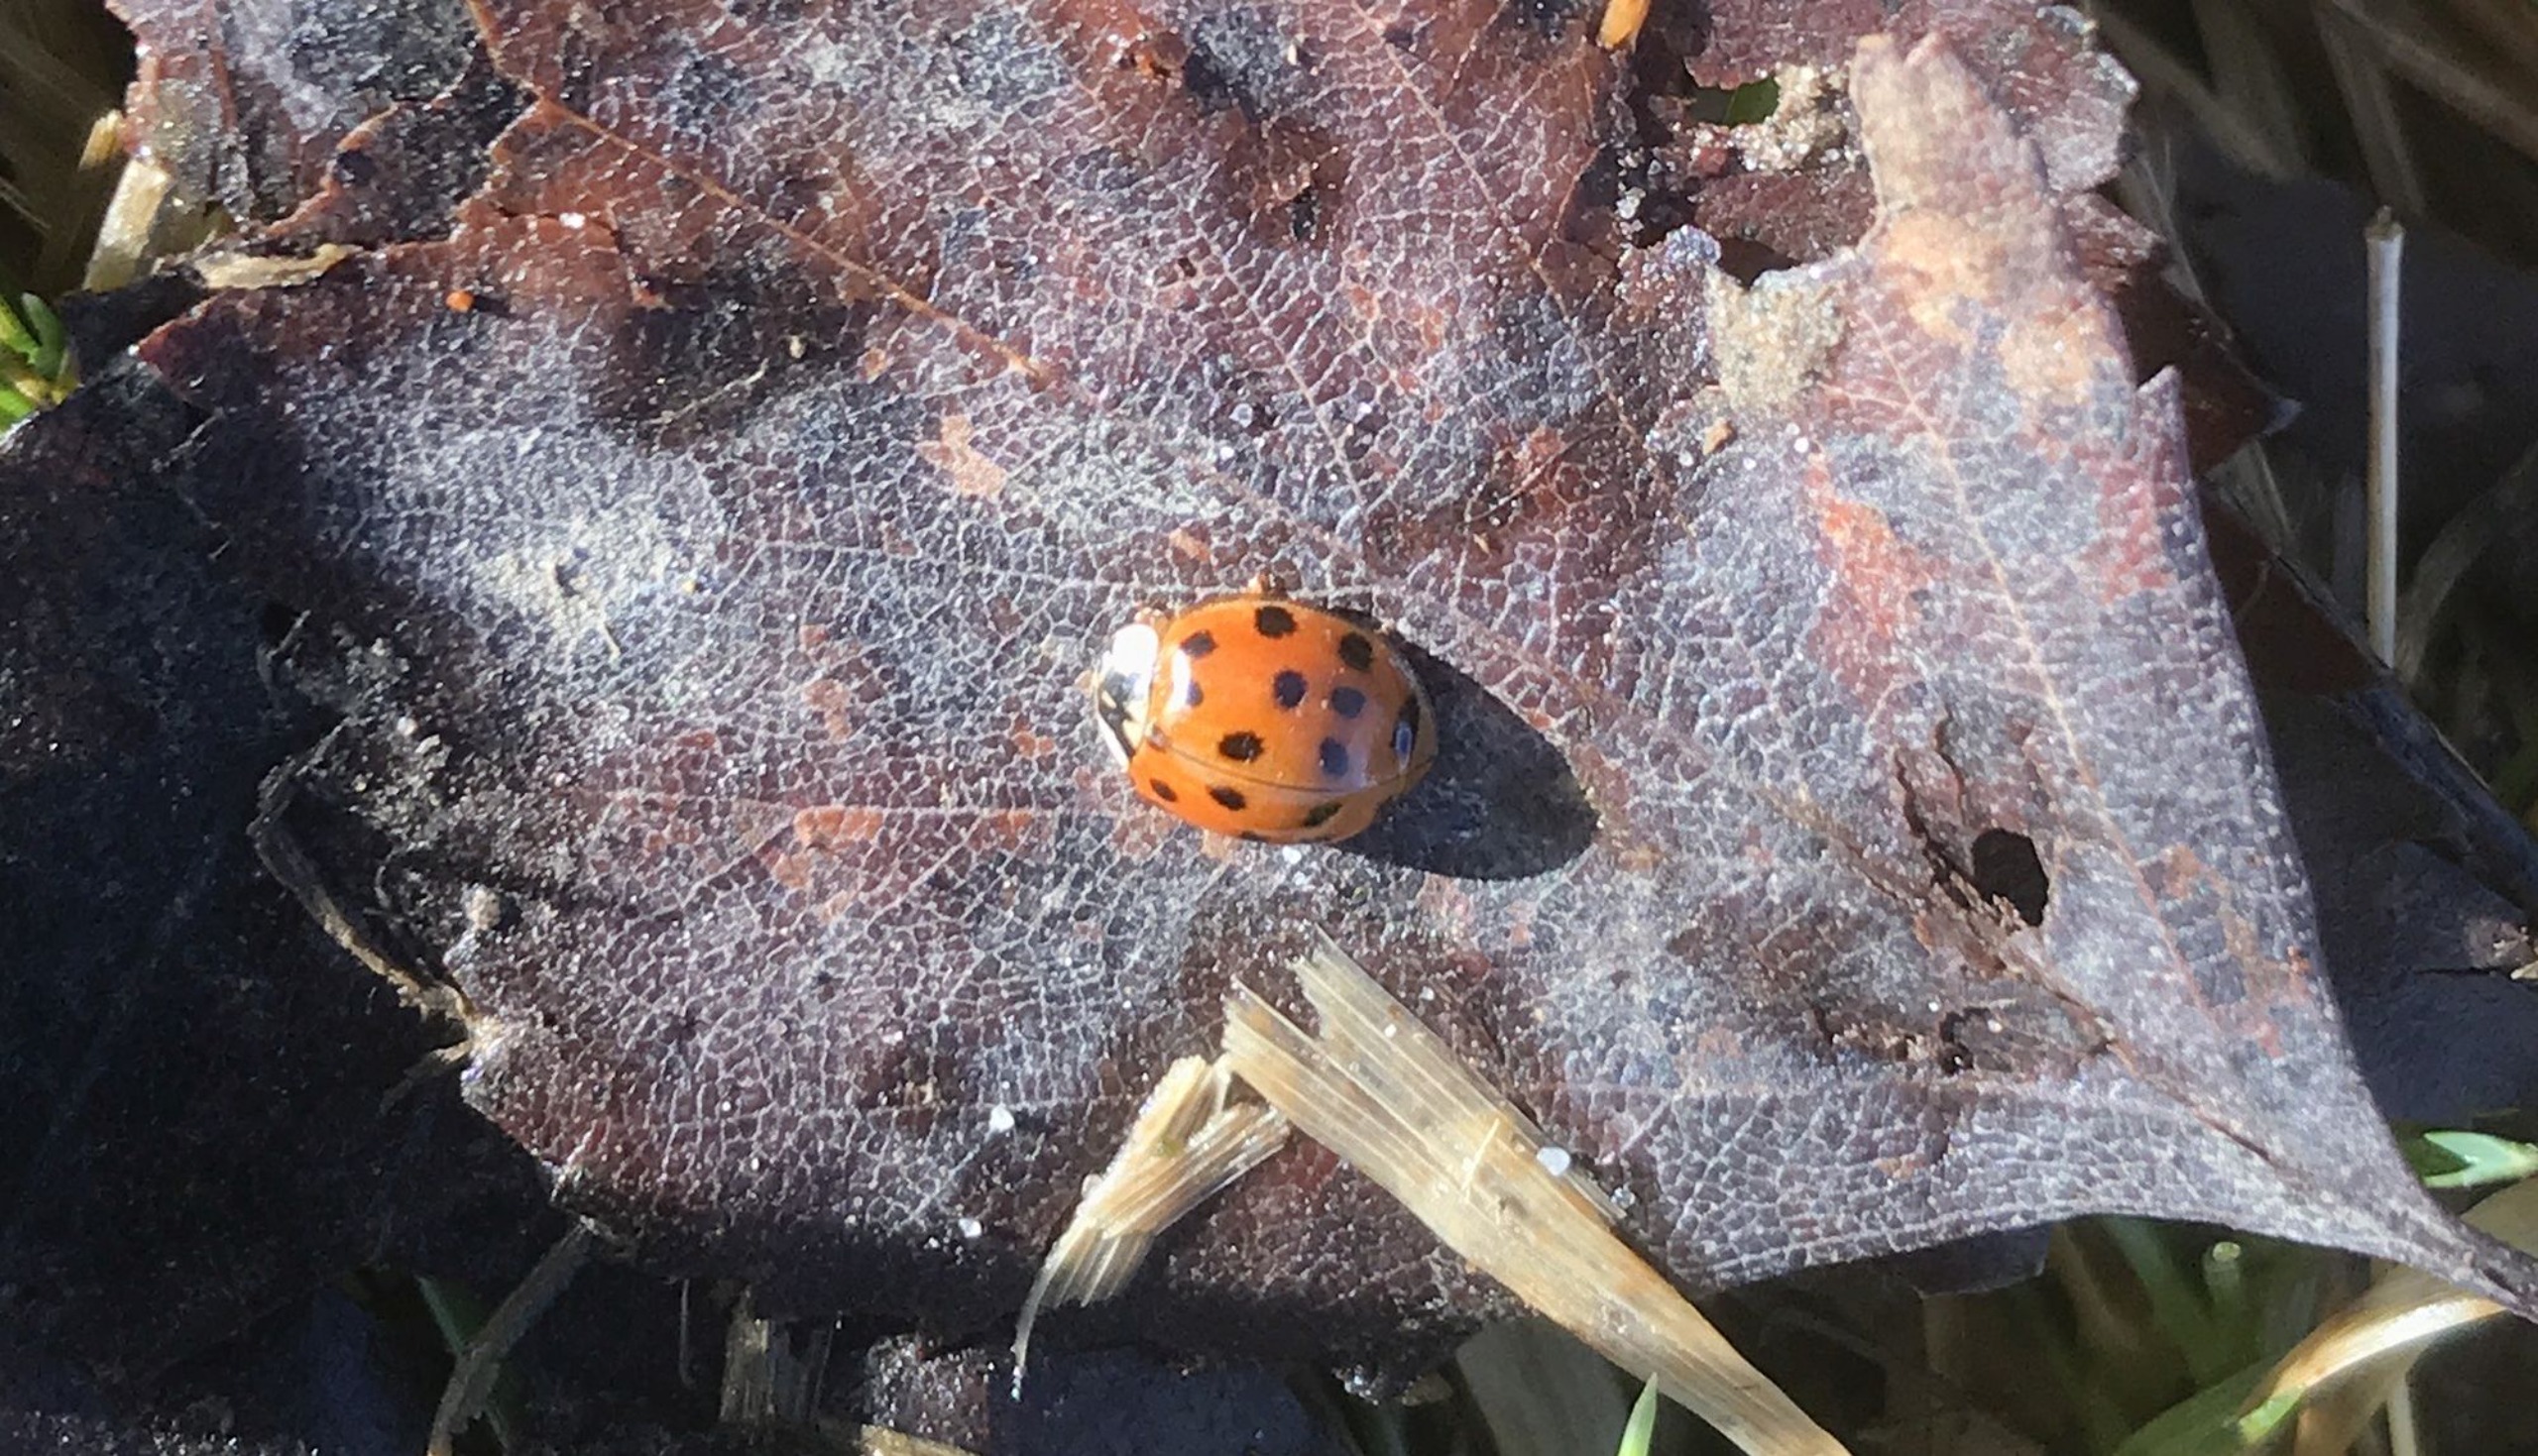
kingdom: Animalia
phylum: Arthropoda
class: Insecta
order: Coleoptera
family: Coccinellidae
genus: Harmonia
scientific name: Harmonia axyridis
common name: Harlekinmariehøne
